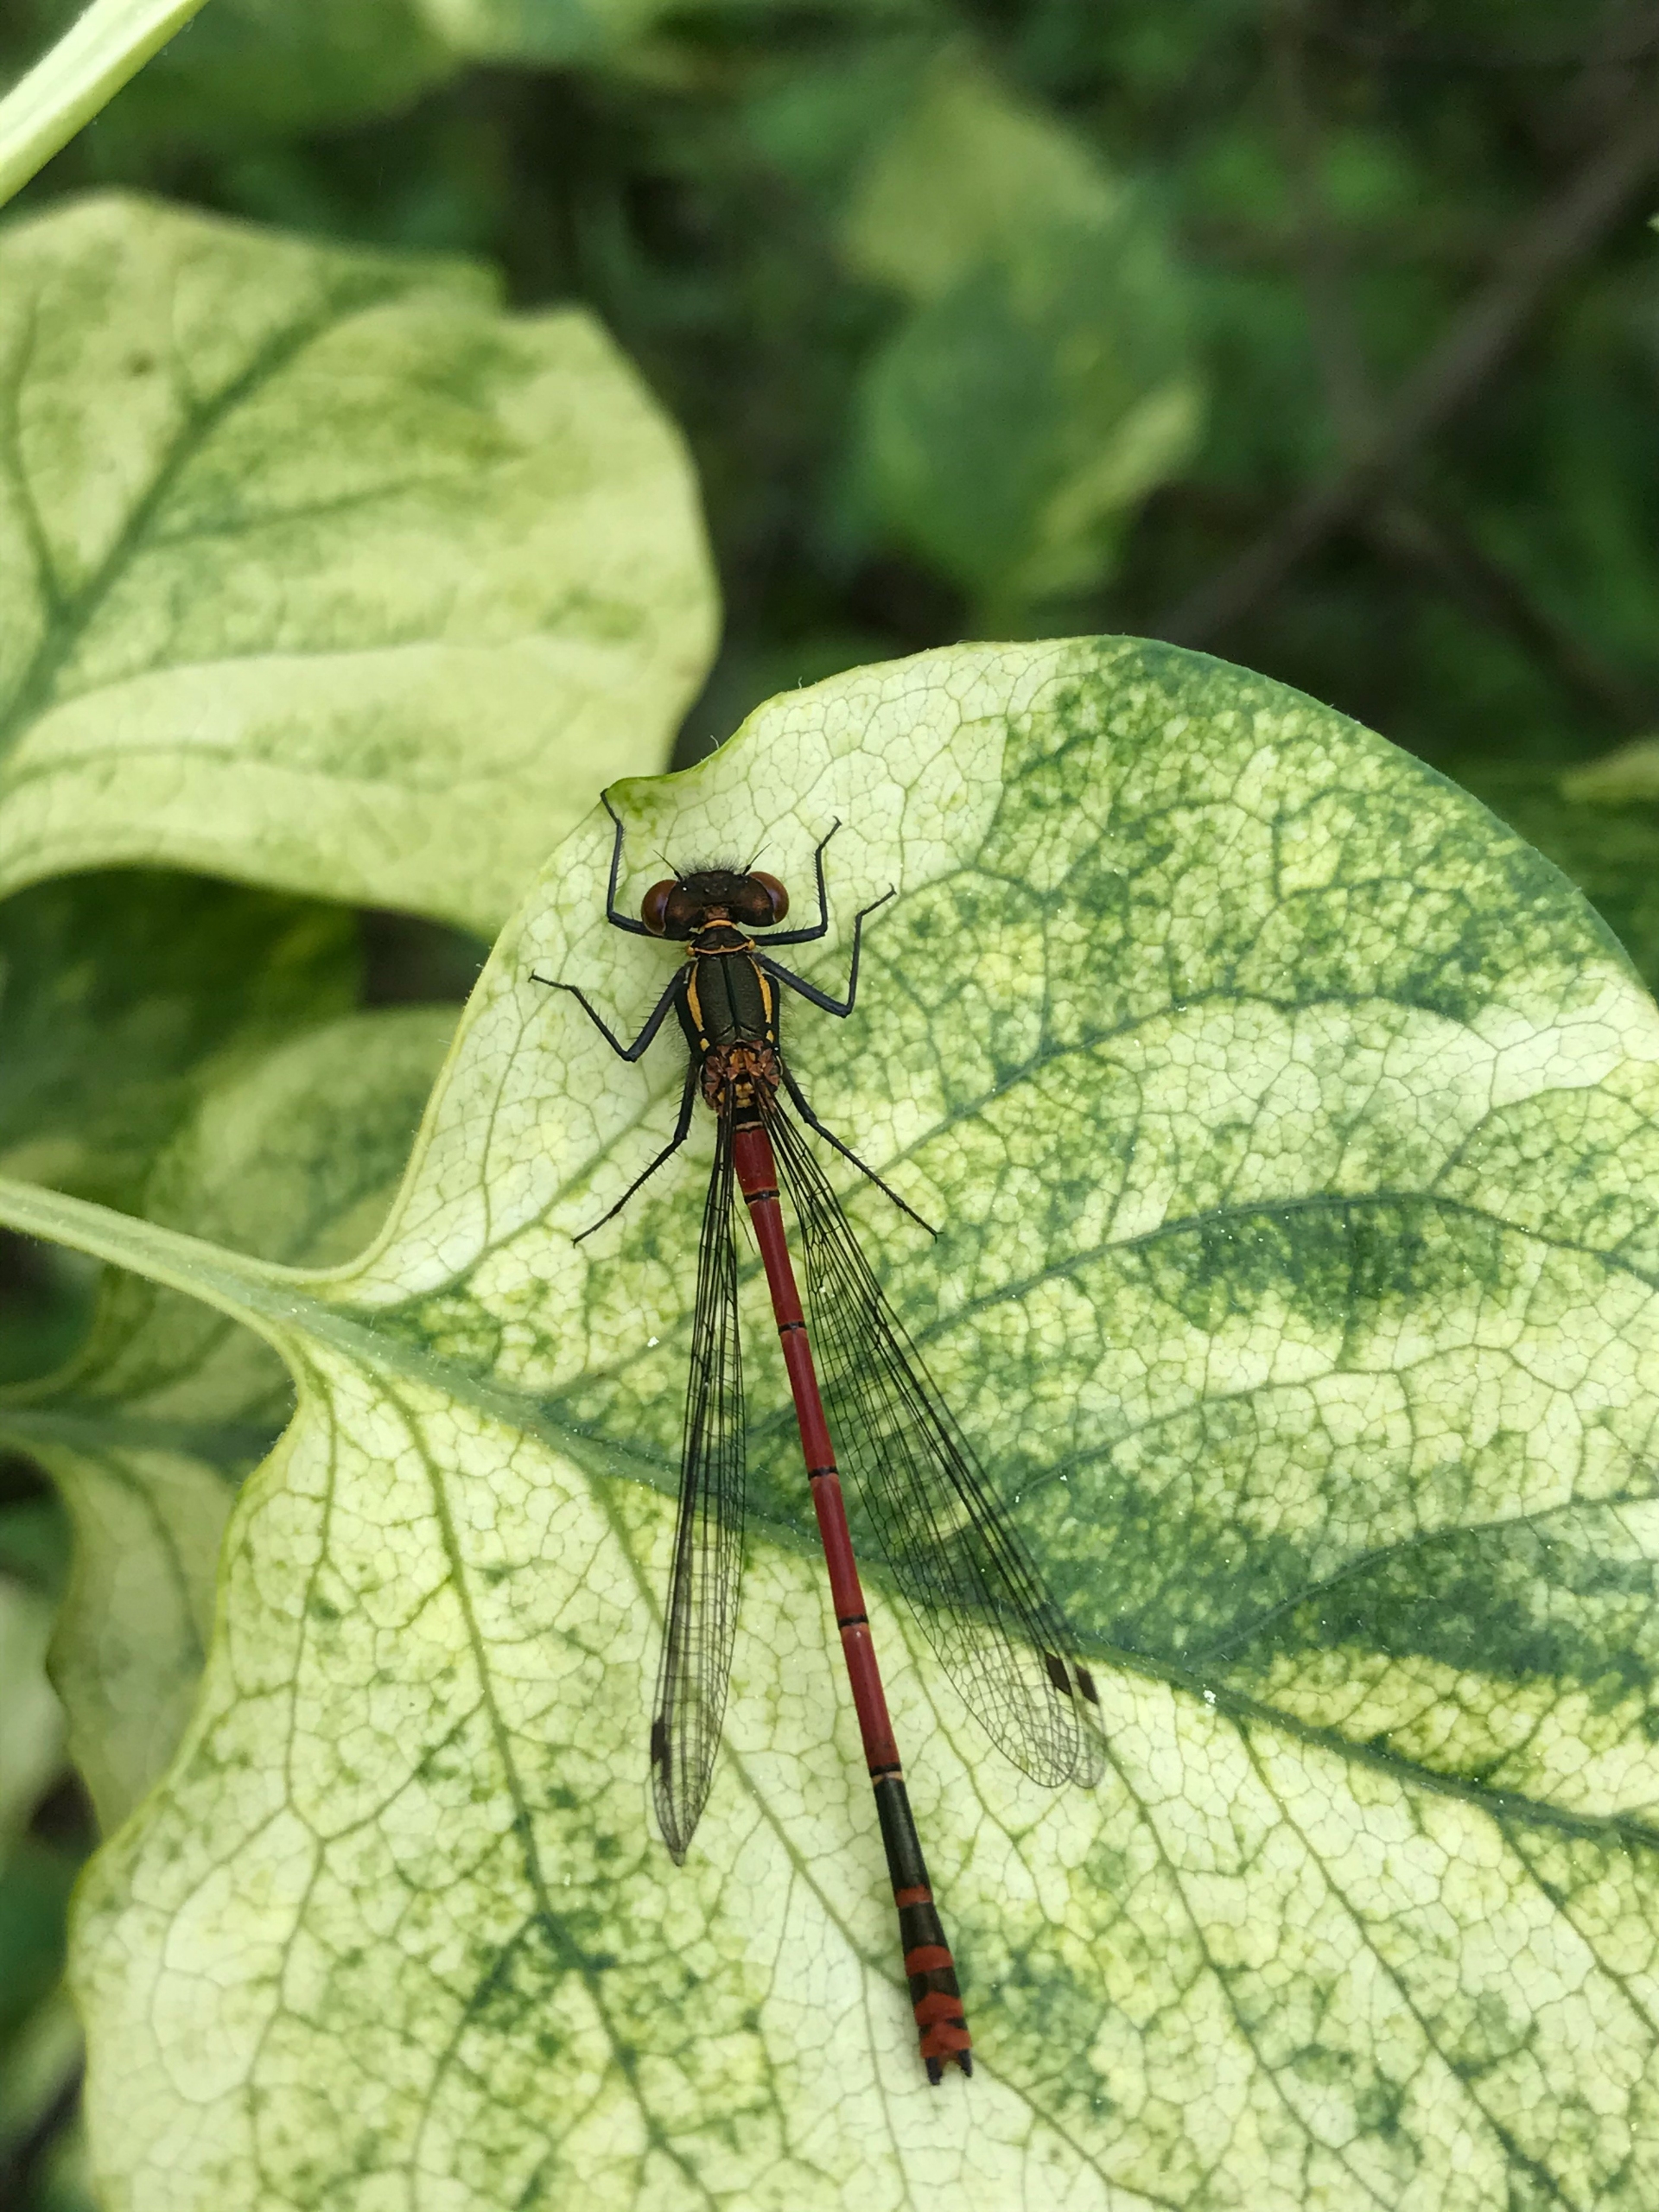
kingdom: Animalia
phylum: Arthropoda
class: Insecta
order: Odonata
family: Coenagrionidae
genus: Pyrrhosoma
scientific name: Pyrrhosoma nymphula
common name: Rød vandnymfe
